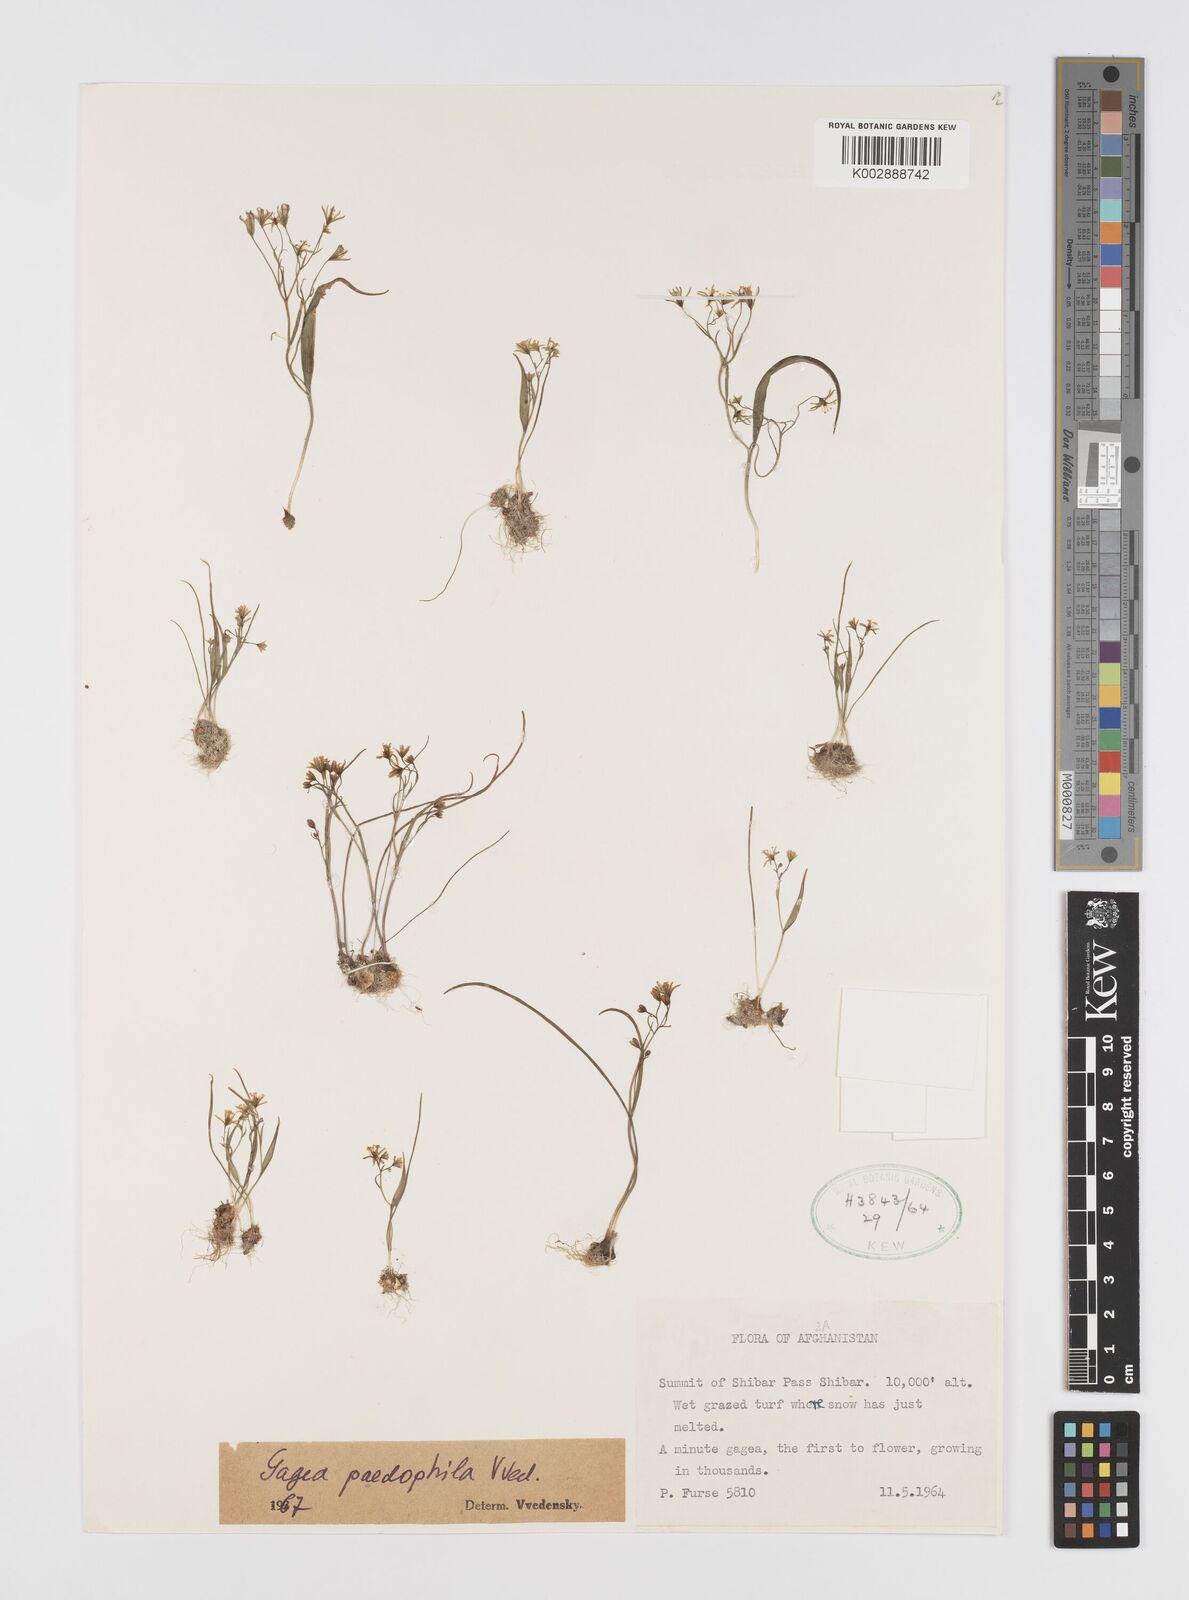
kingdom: Plantae
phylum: Tracheophyta
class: Liliopsida
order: Liliales
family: Liliaceae
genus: Gagea
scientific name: Gagea paedophila
